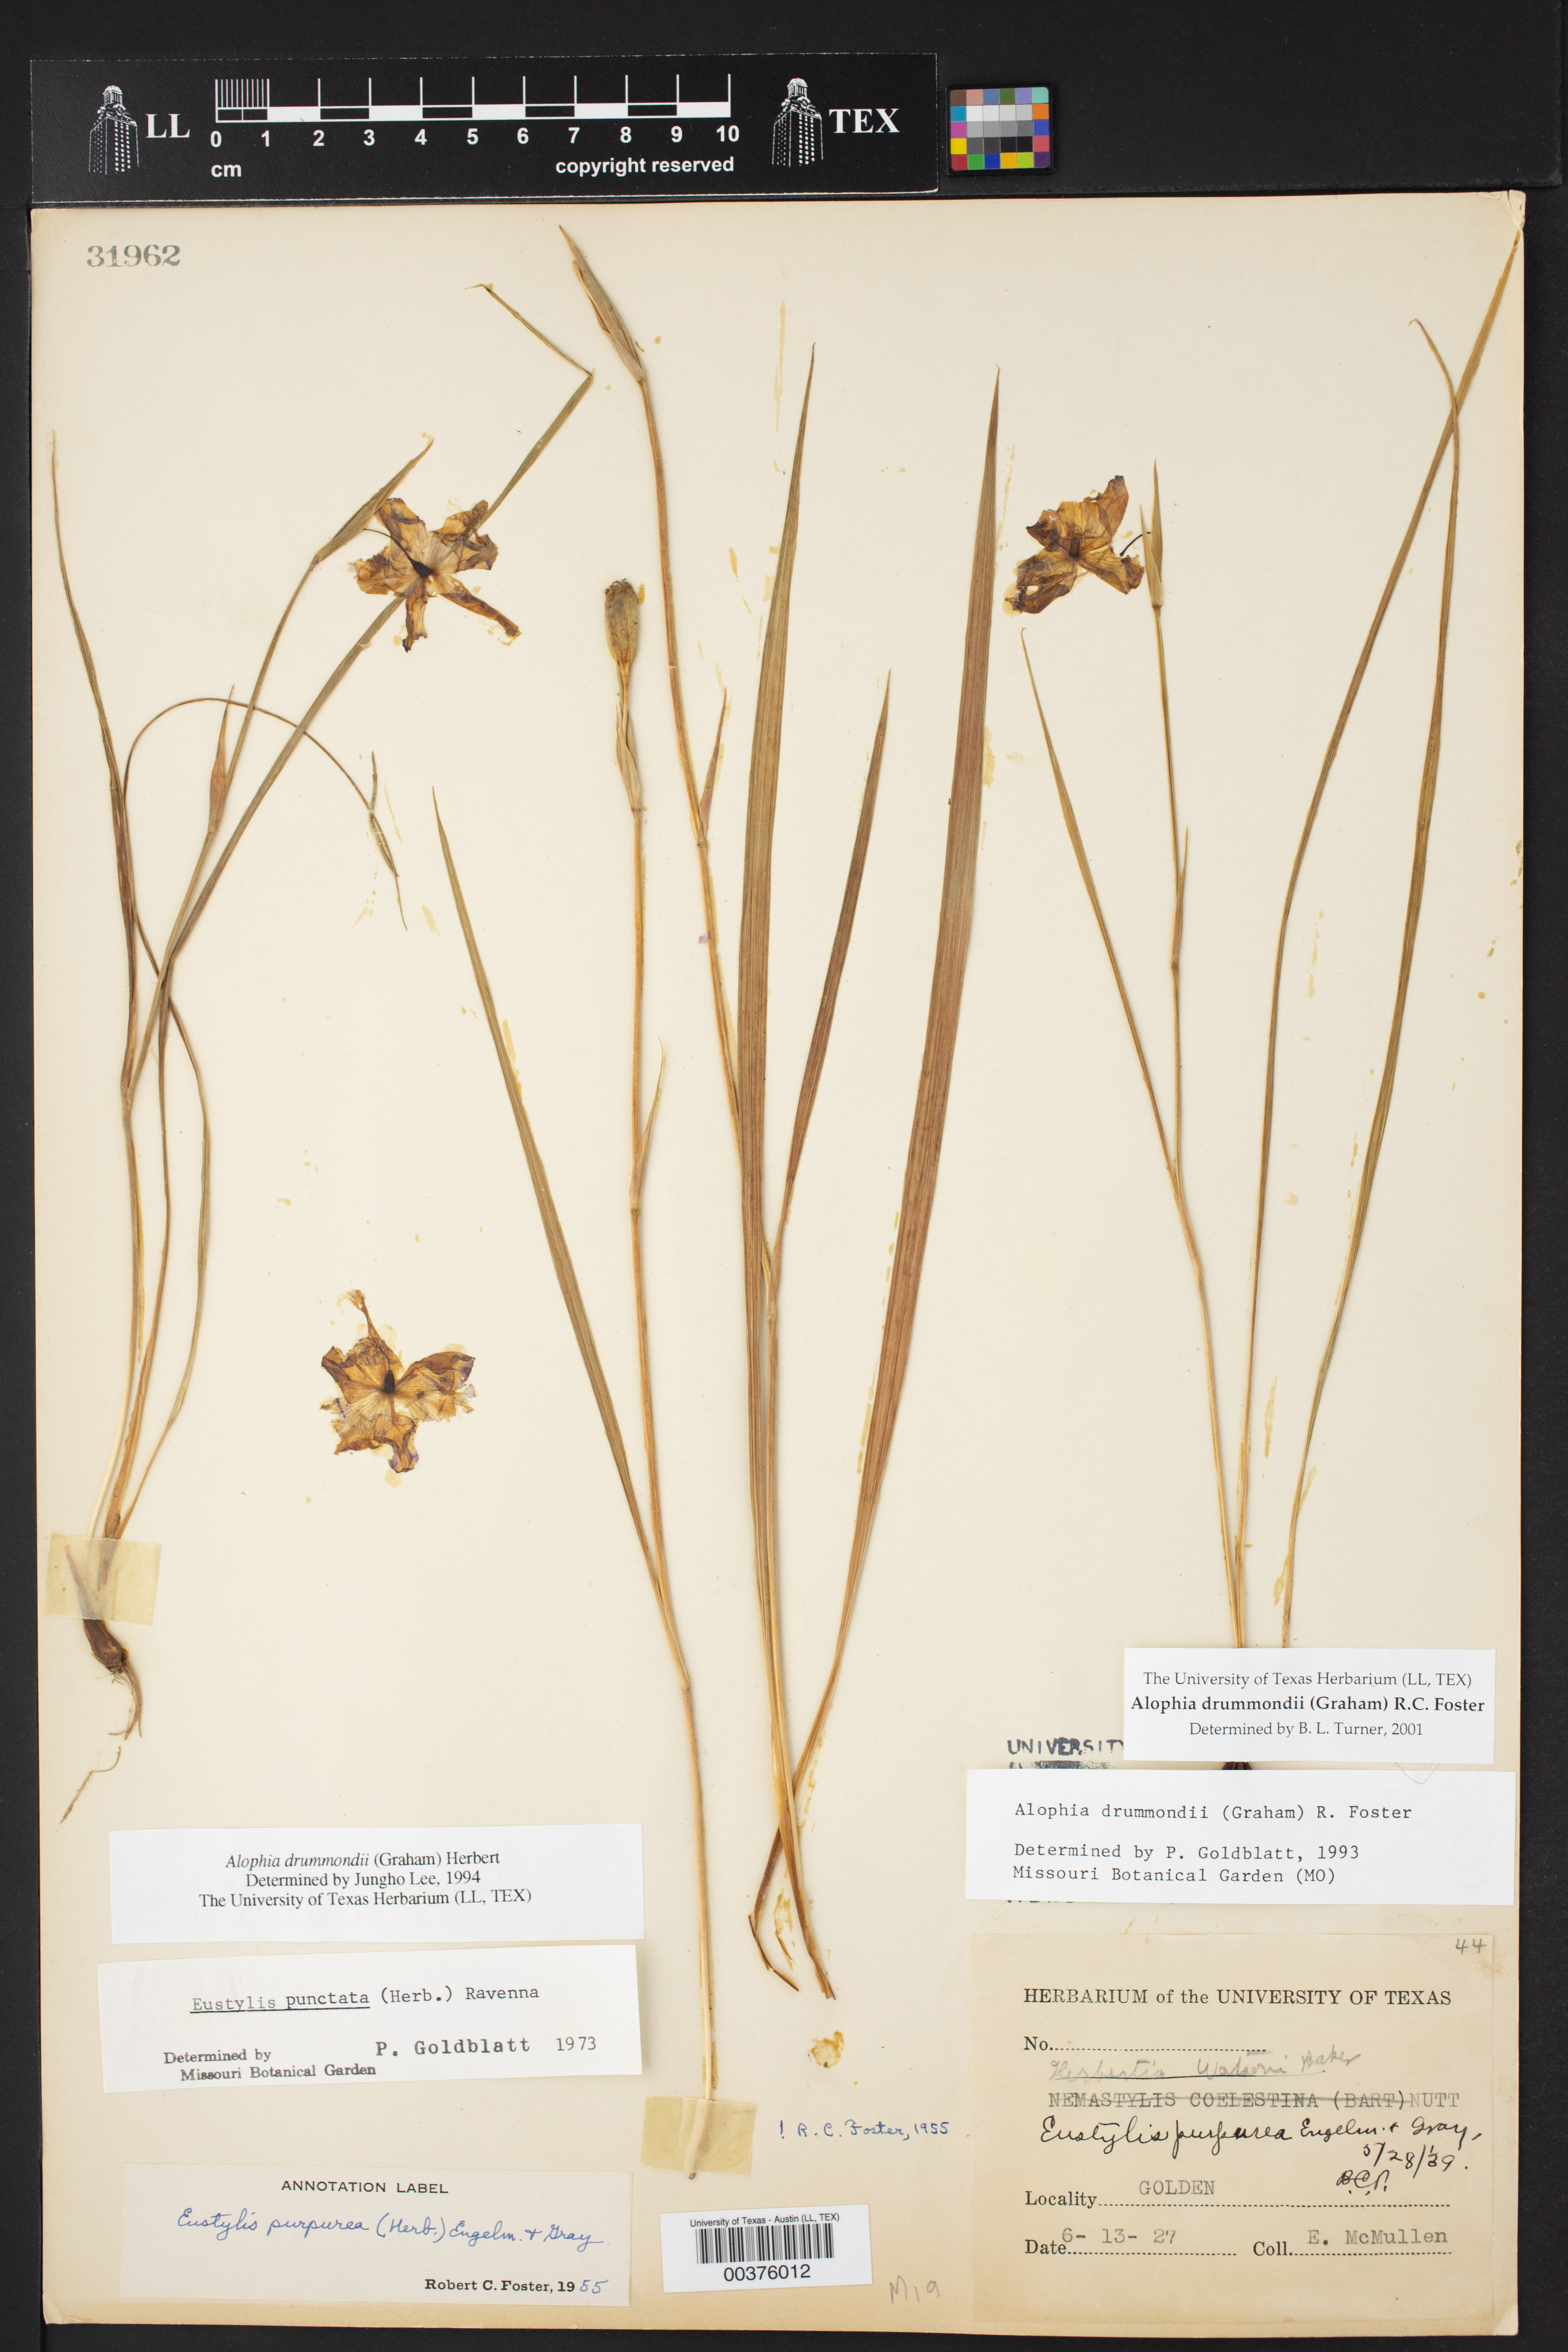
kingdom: Plantae
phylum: Tracheophyta
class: Liliopsida
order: Asparagales
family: Iridaceae
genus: Alophia
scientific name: Alophia drummondii
